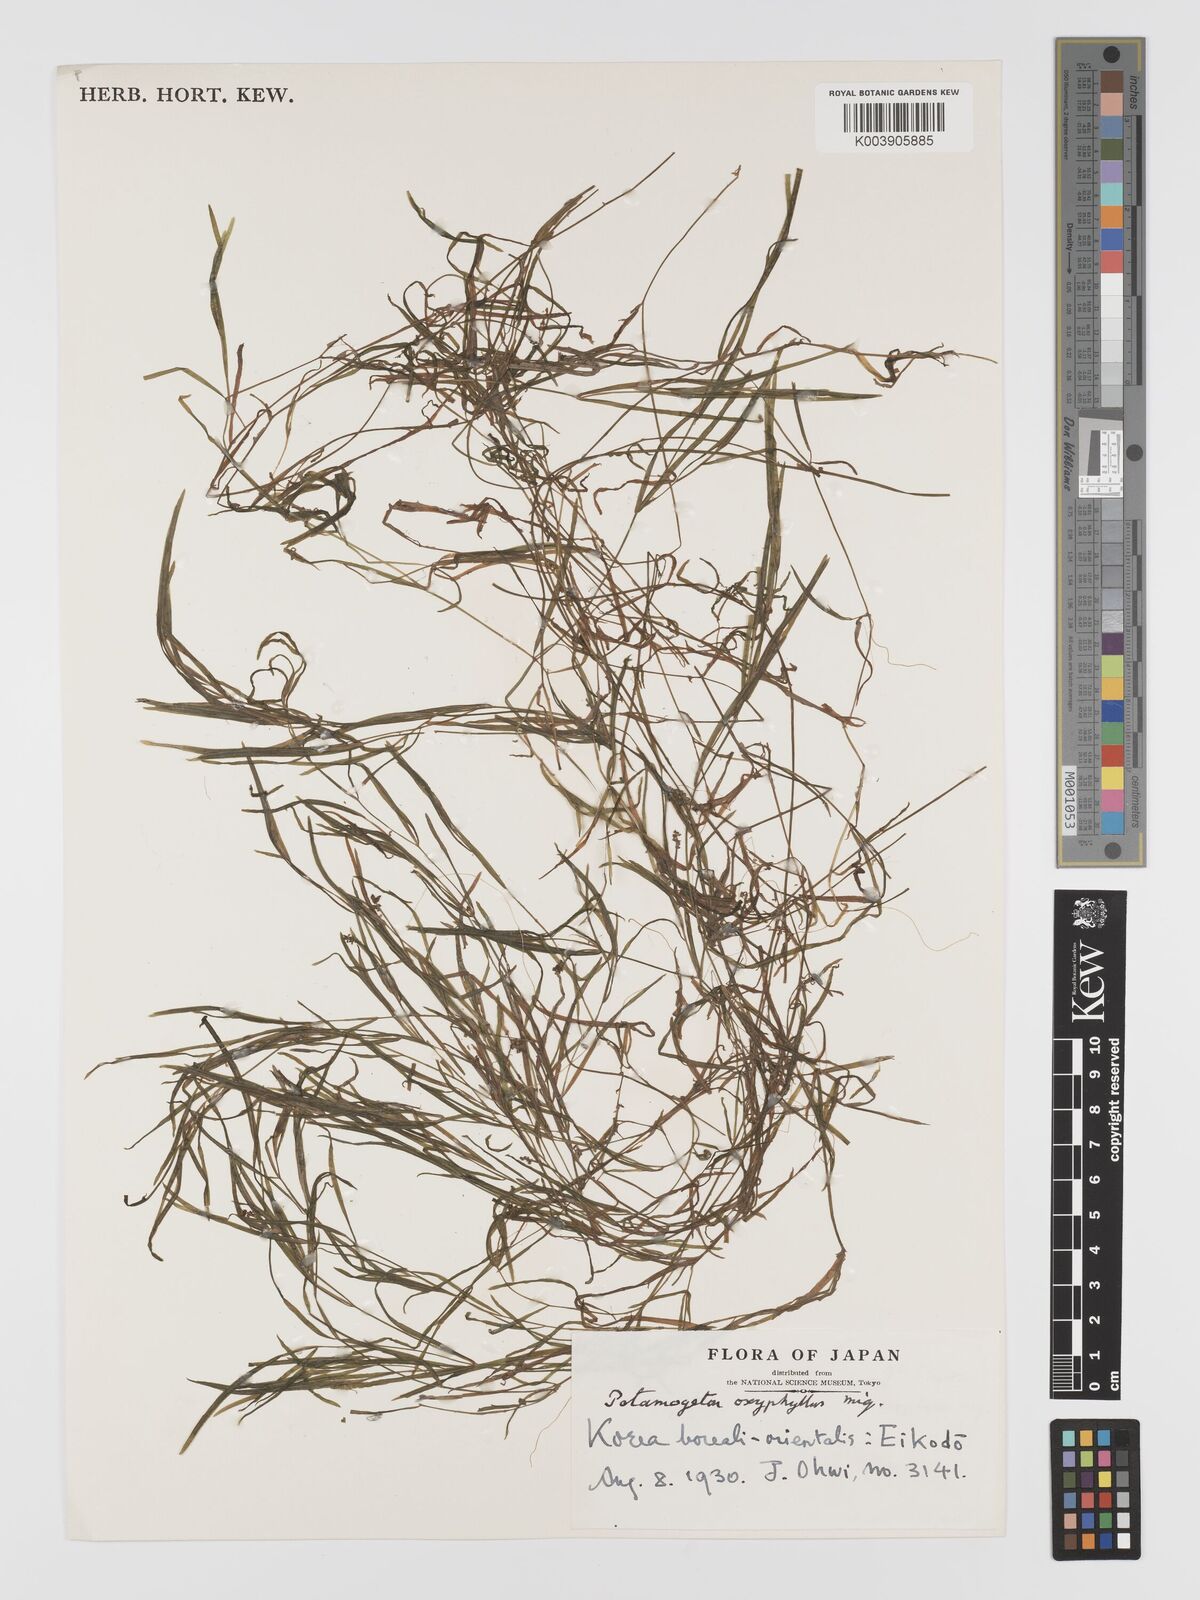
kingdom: Plantae
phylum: Tracheophyta
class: Liliopsida
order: Alismatales
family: Potamogetonaceae
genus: Potamogeton
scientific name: Potamogeton oxyphyllus
